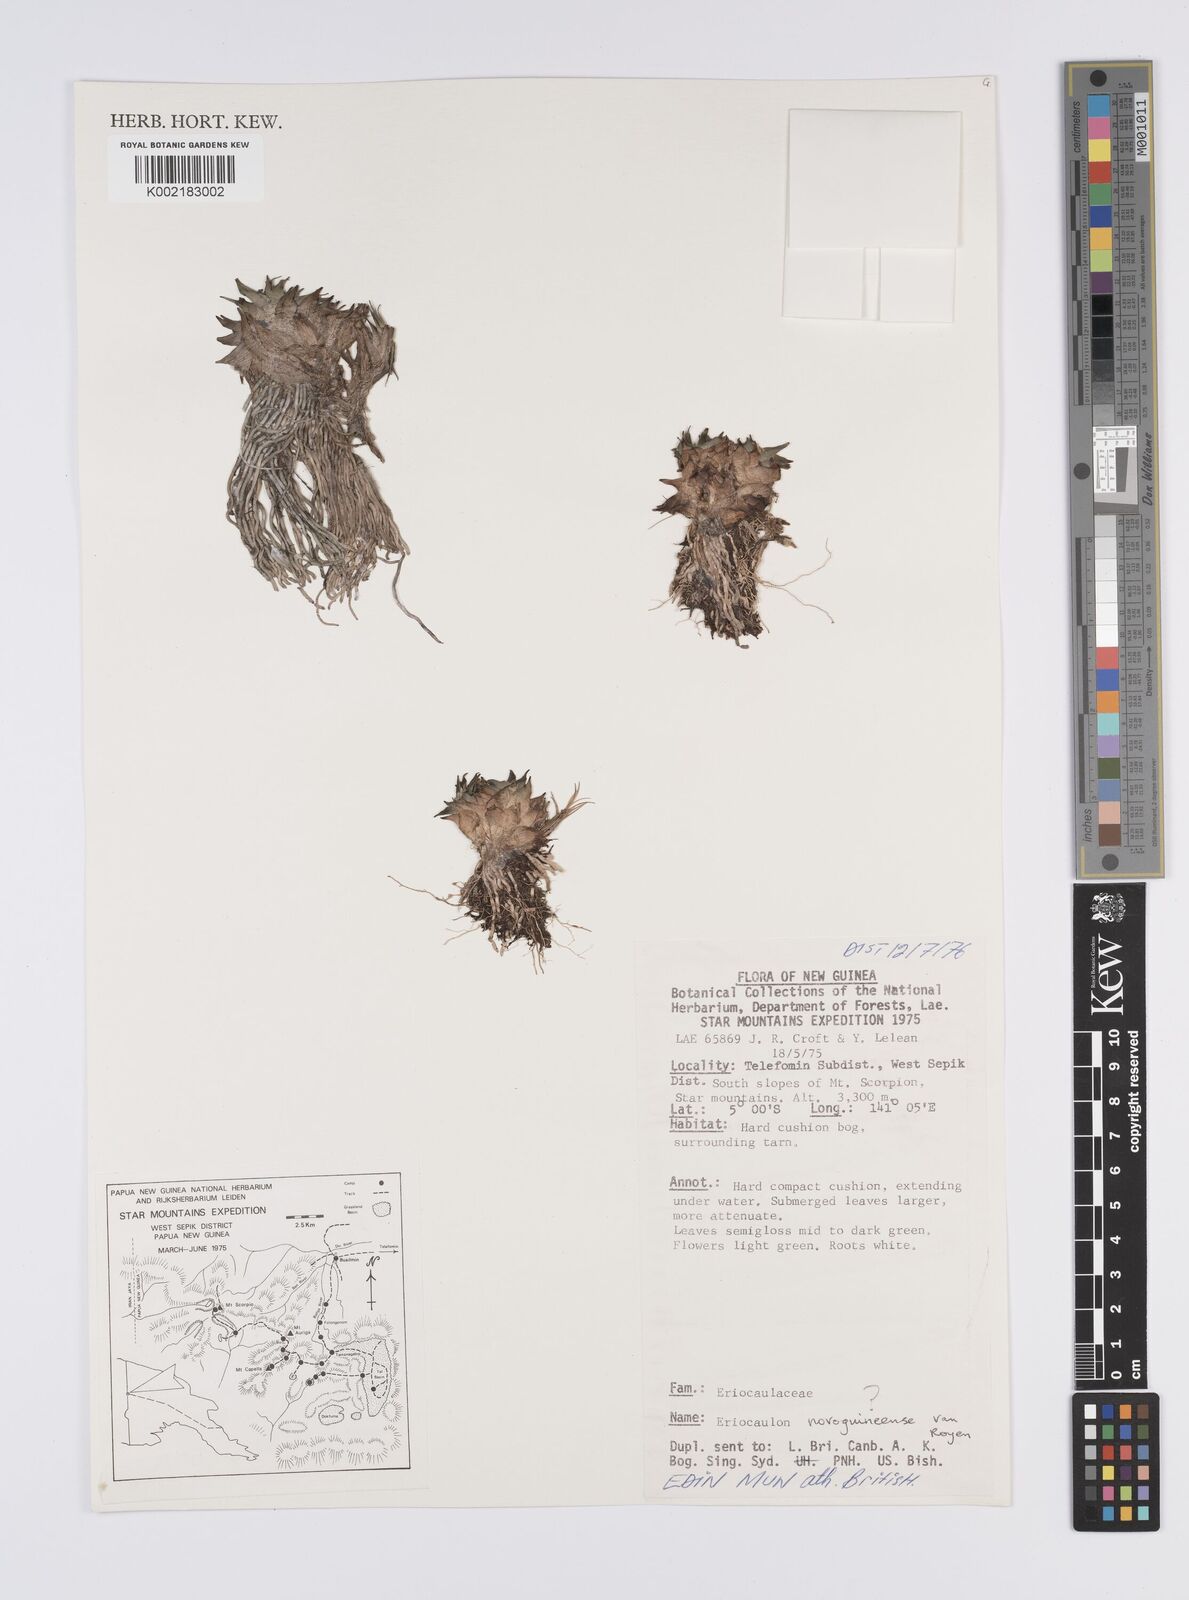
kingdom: Plantae
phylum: Tracheophyta
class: Liliopsida
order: Poales
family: Eriocaulaceae
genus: Eriocaulon
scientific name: Eriocaulon novoguineense
